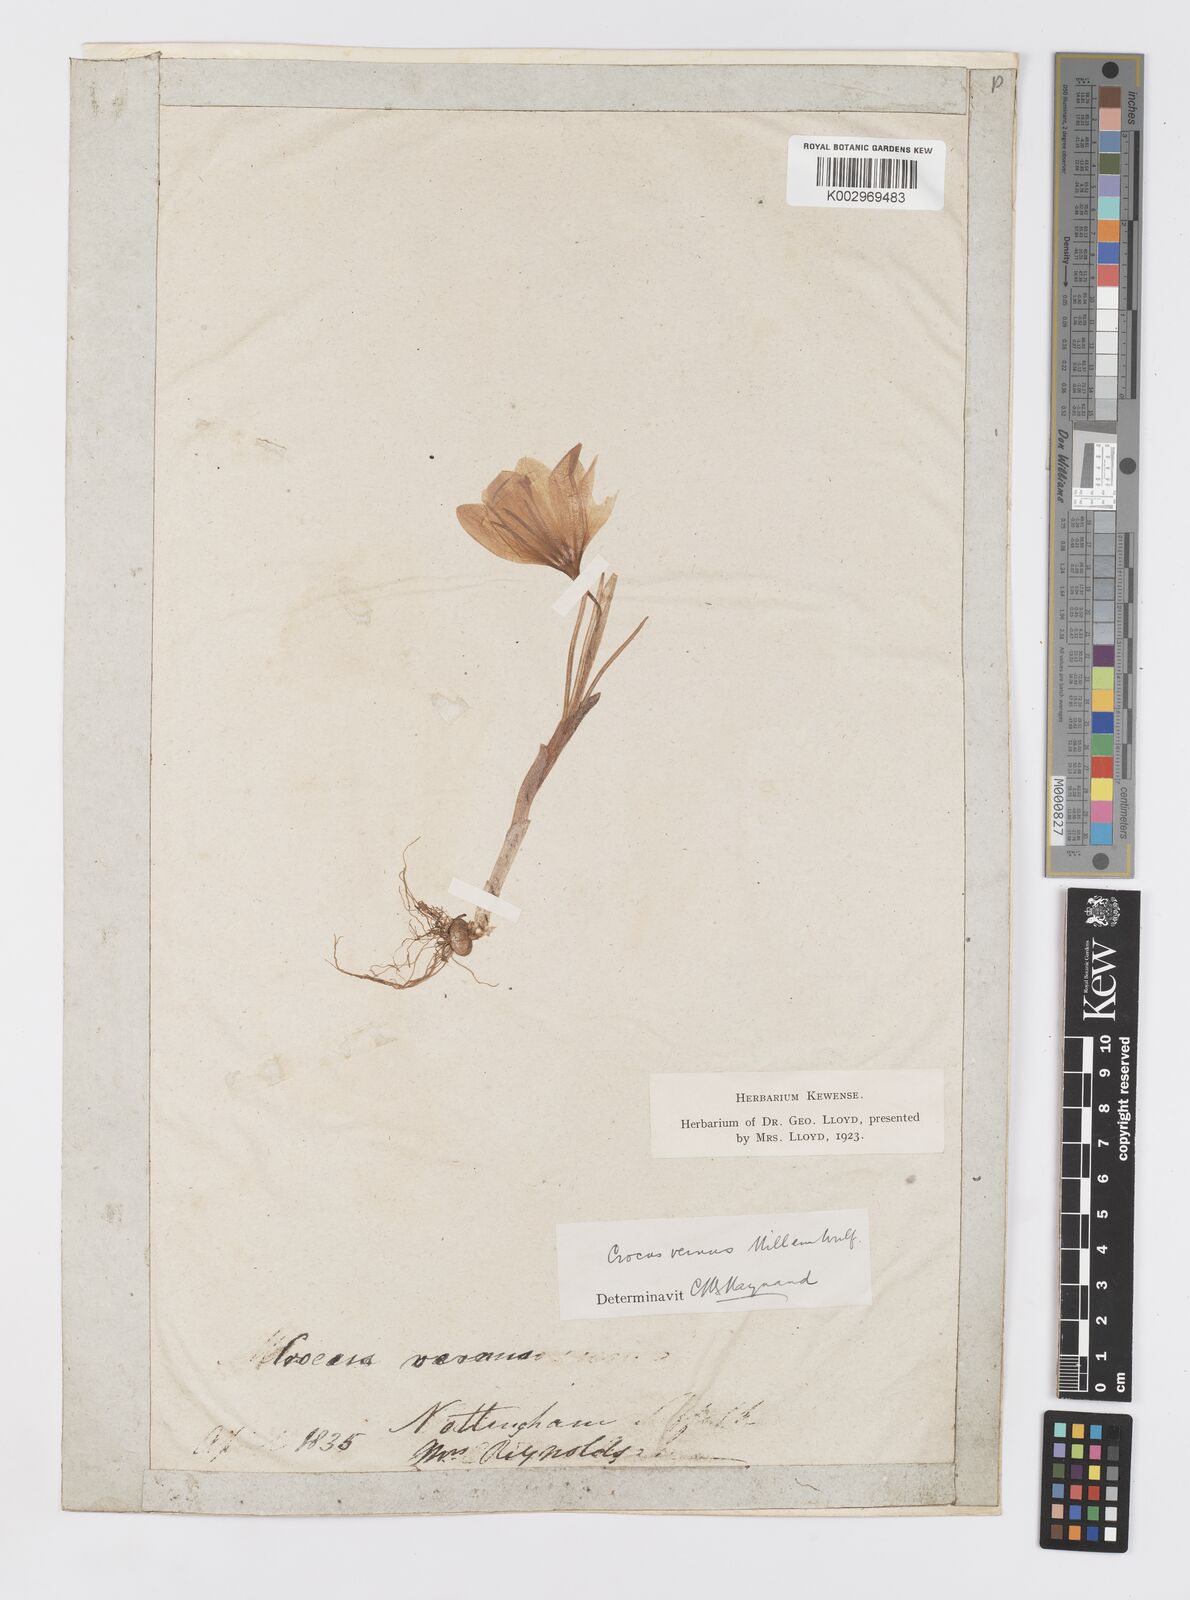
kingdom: Plantae
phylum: Tracheophyta
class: Liliopsida
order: Asparagales
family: Iridaceae
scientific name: Iridaceae
